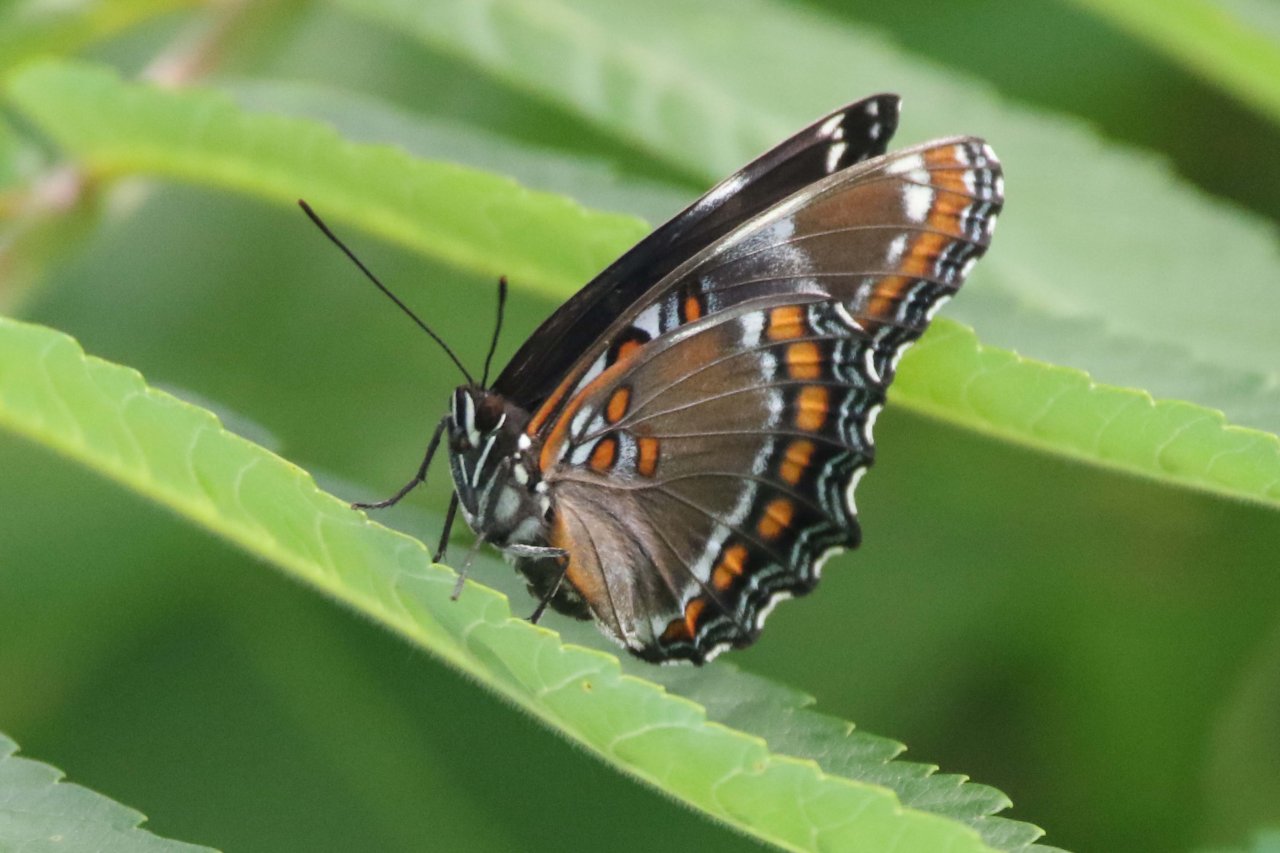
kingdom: Animalia
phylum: Arthropoda
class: Insecta
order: Lepidoptera
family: Nymphalidae
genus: Limenitis
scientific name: Limenitis
